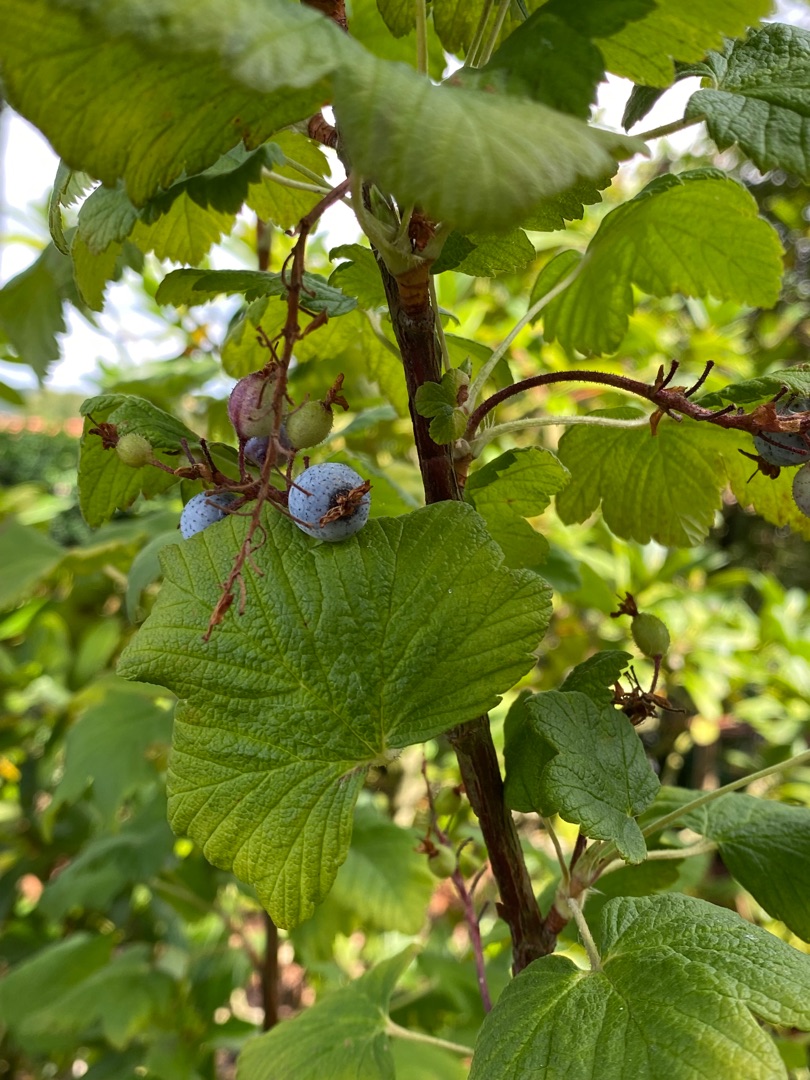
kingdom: Plantae
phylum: Tracheophyta
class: Magnoliopsida
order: Saxifragales
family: Grossulariaceae
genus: Ribes
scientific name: Ribes sanguineum
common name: Blod-ribs
